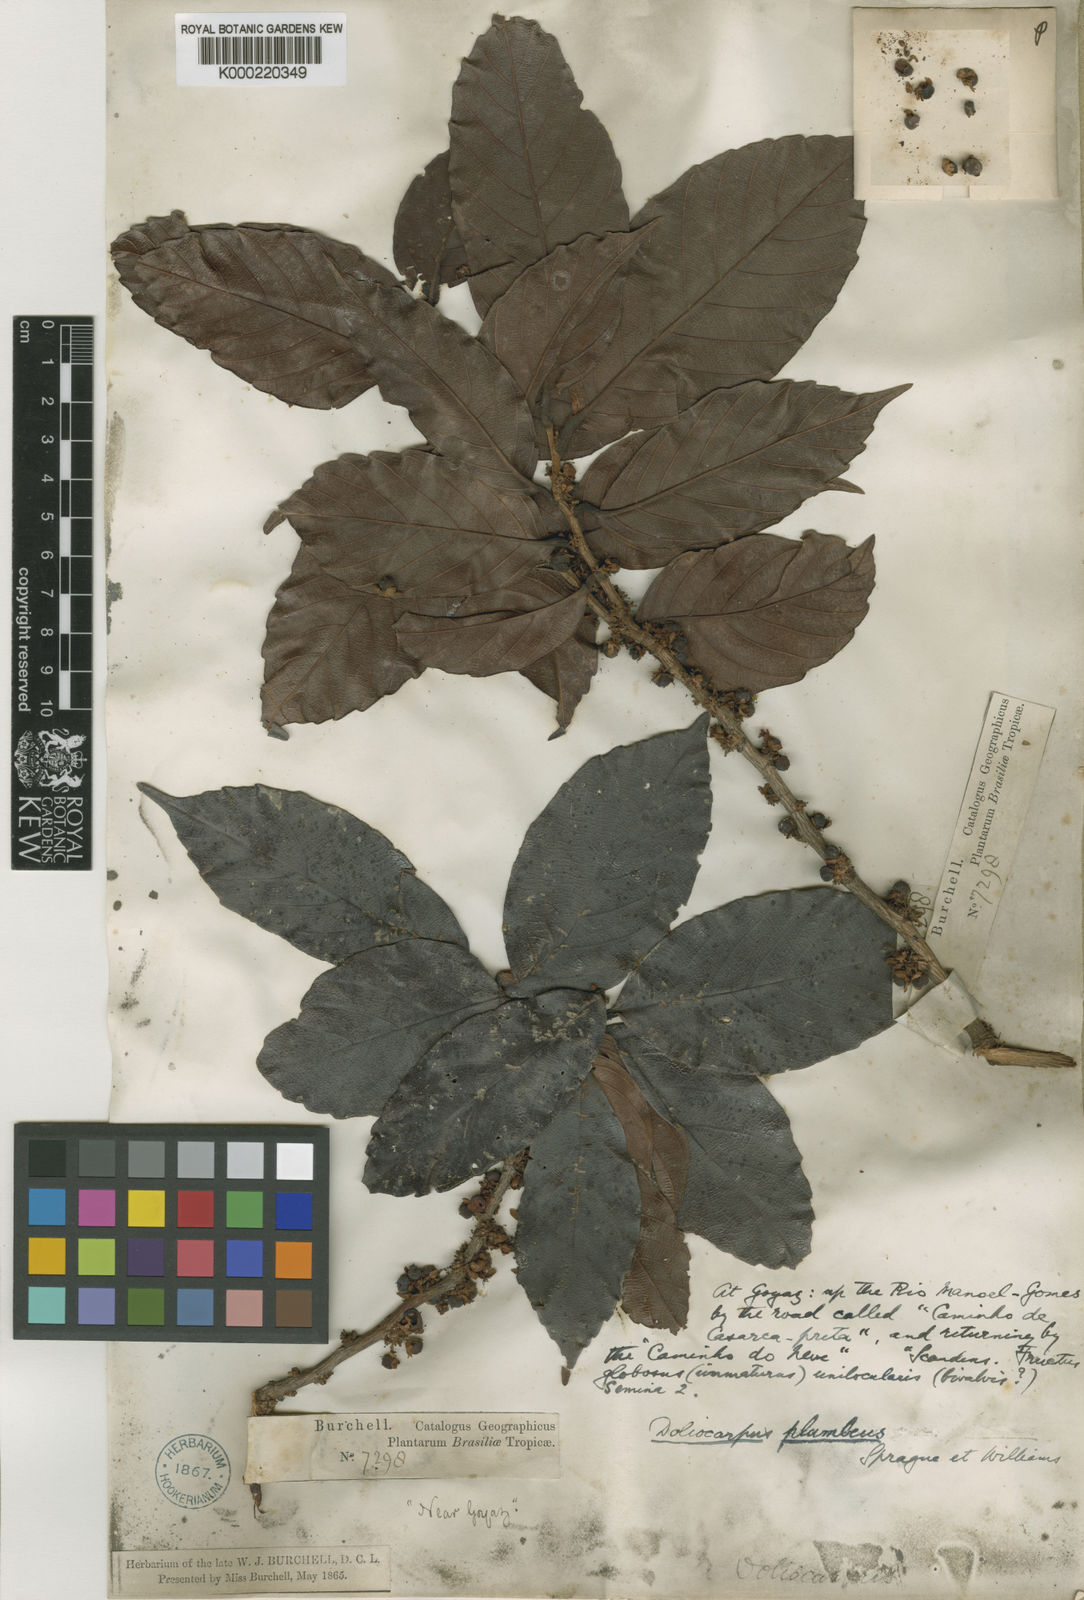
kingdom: Plantae
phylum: Tracheophyta
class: Magnoliopsida
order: Dilleniales
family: Dilleniaceae
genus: Doliocarpus
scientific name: Doliocarpus
